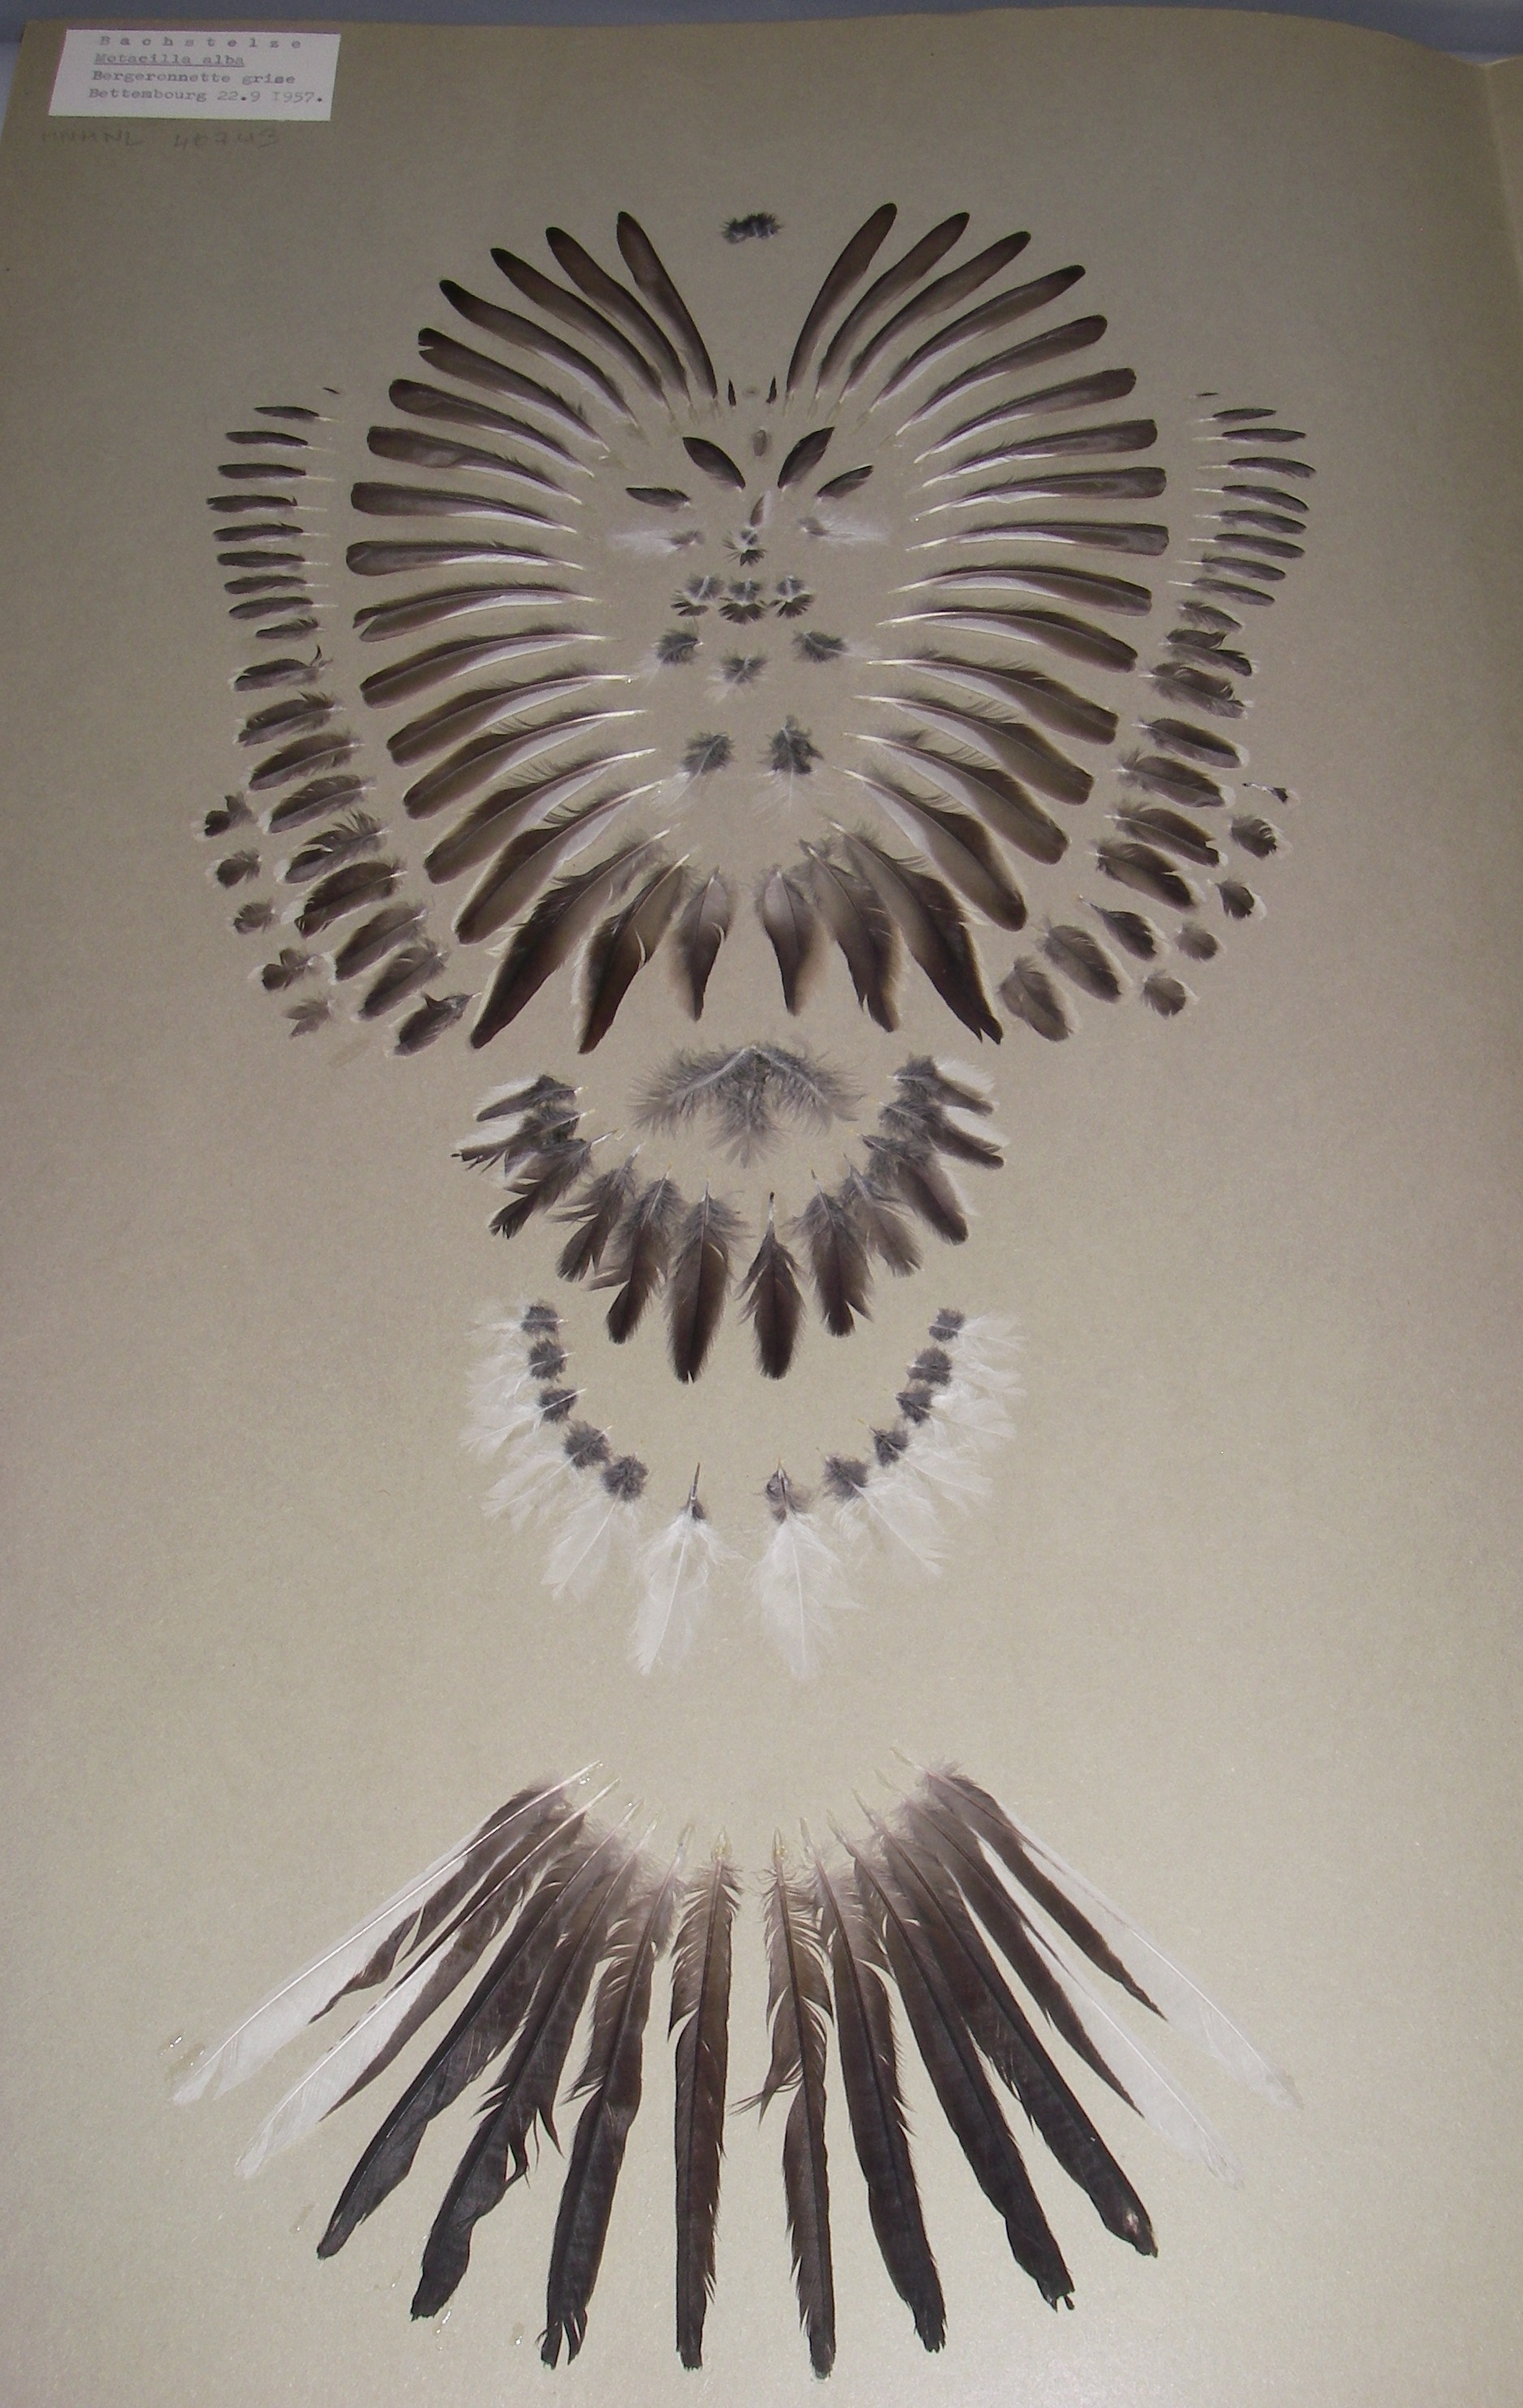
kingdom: Animalia
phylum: Chordata
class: Aves
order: Passeriformes
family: Motacillidae
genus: Motacilla
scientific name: Motacilla alba
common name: White wagtail
